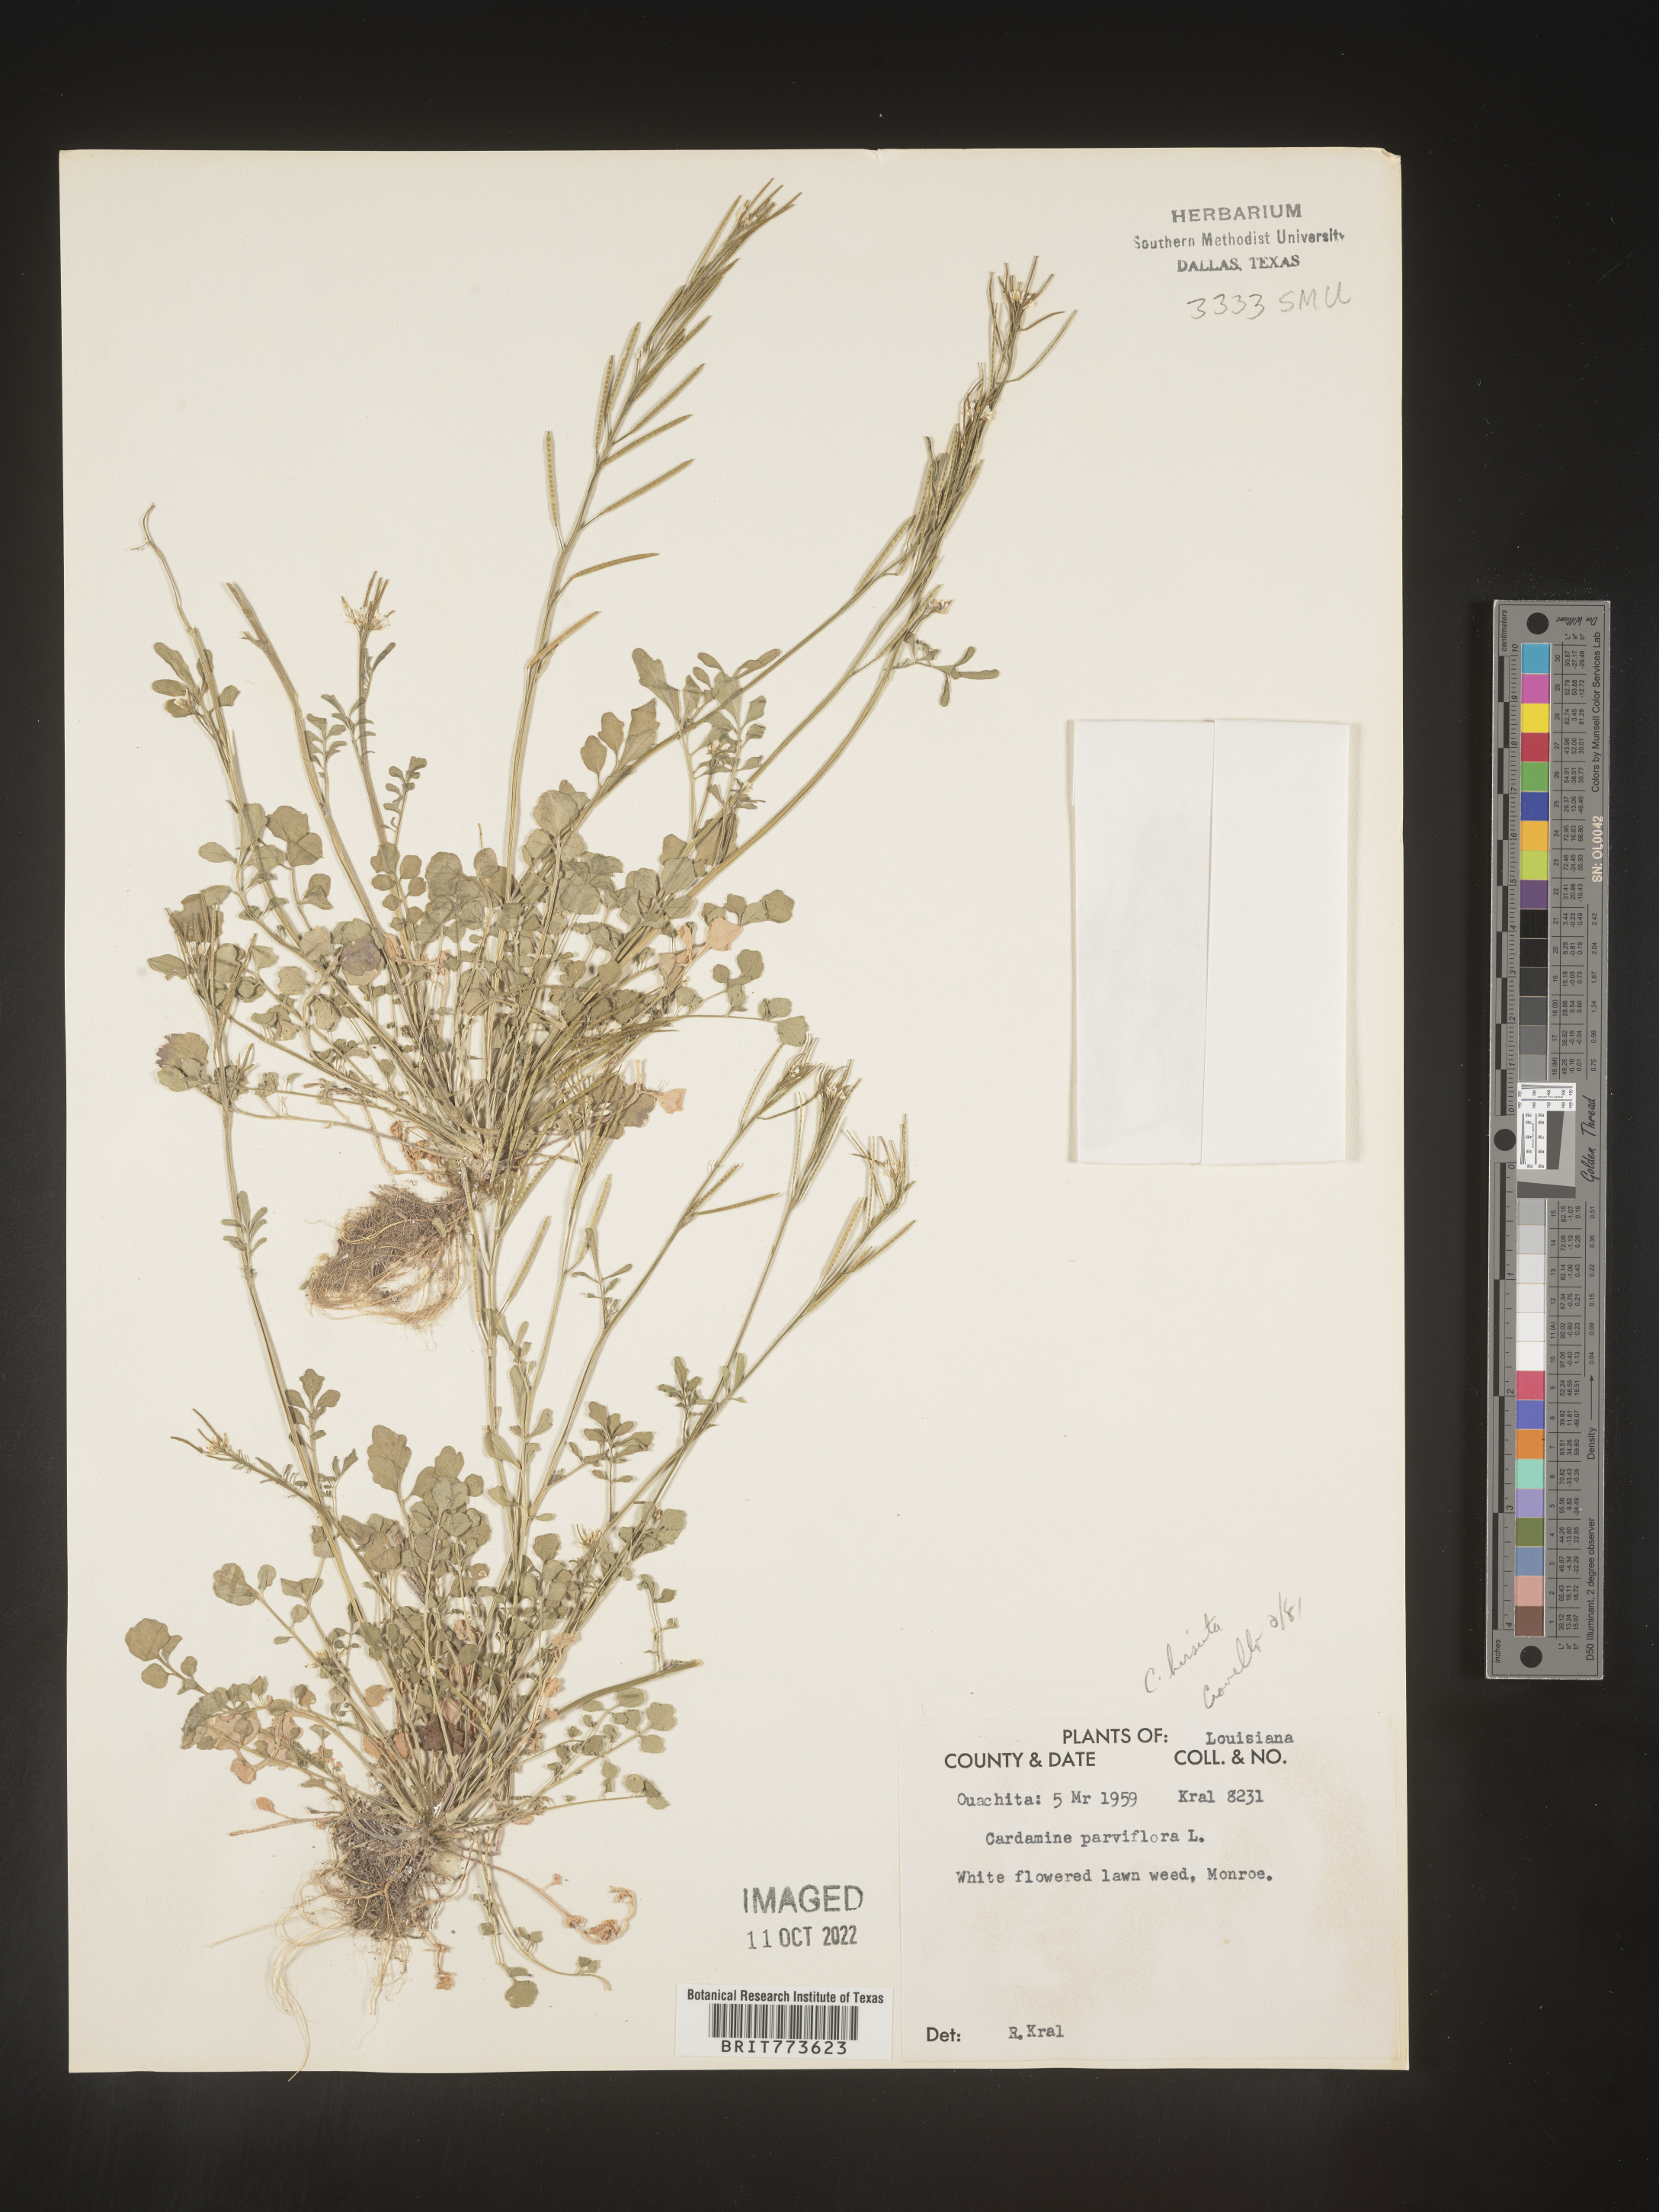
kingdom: Plantae
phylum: Tracheophyta
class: Magnoliopsida
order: Brassicales
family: Brassicaceae
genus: Cardamine
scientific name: Cardamine parviflora
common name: Sand bittercress
